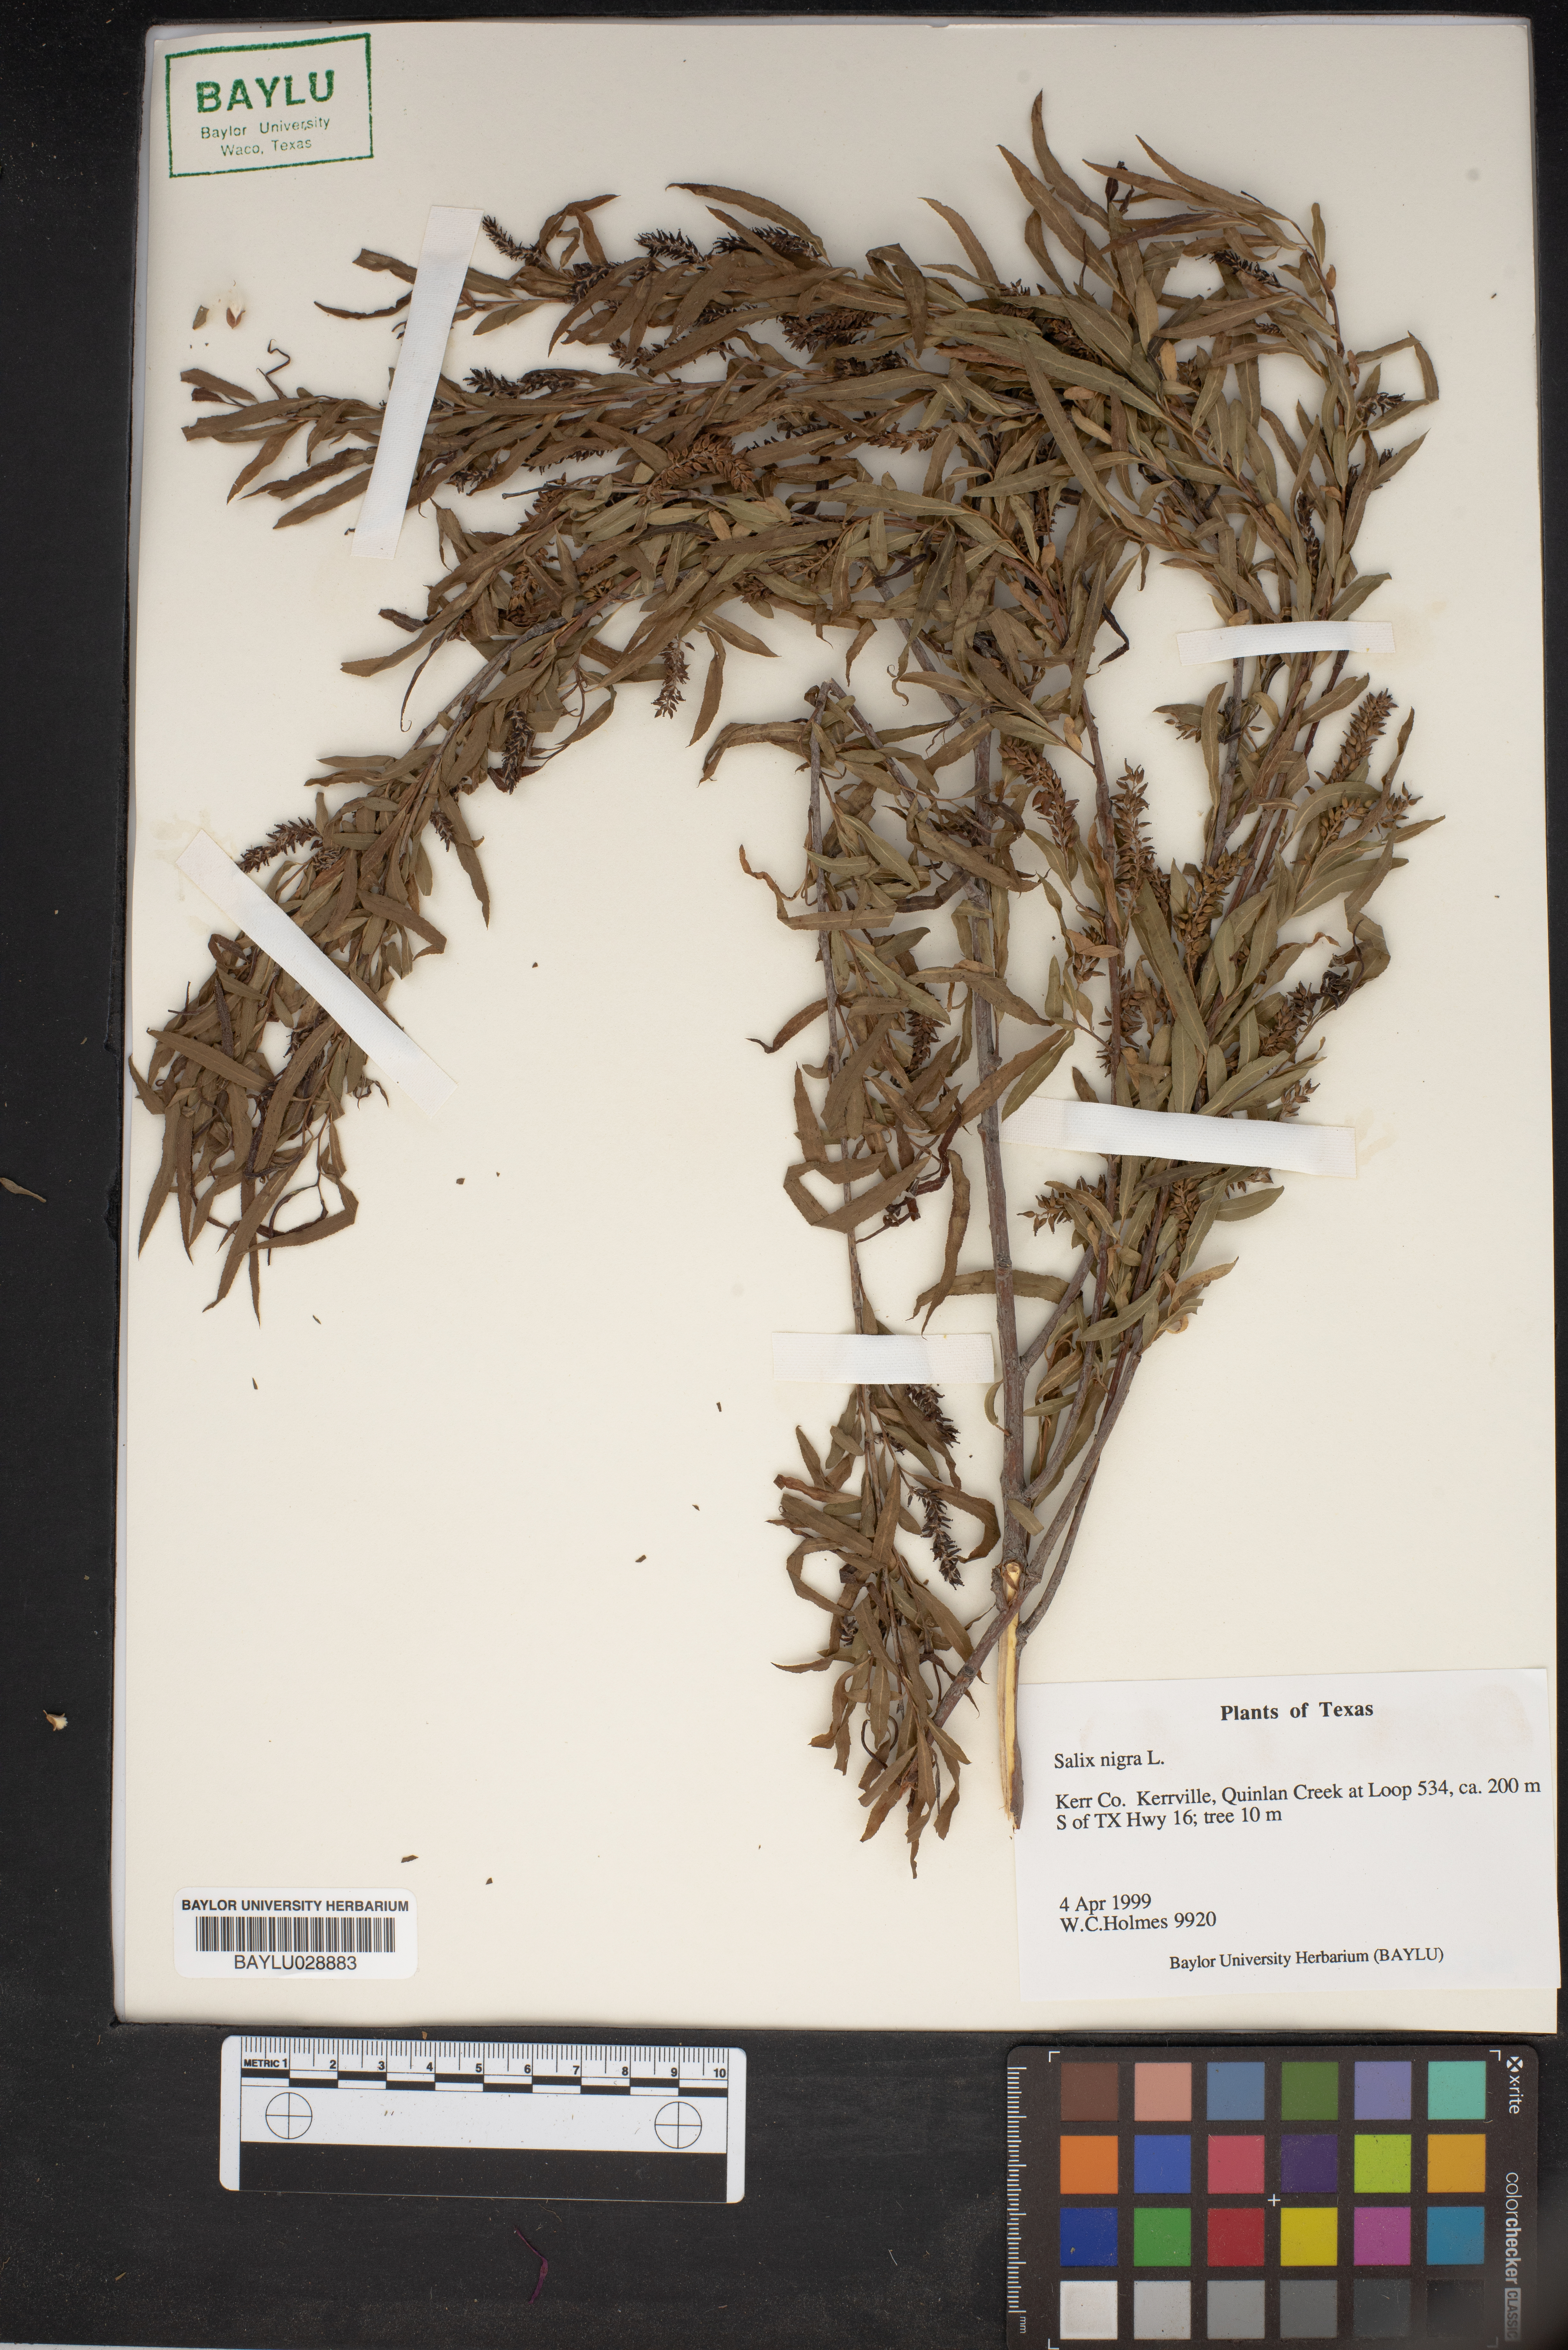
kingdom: Plantae
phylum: Tracheophyta
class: Magnoliopsida
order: Malpighiales
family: Salicaceae
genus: Salix
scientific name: Salix nigra
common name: Black willow
